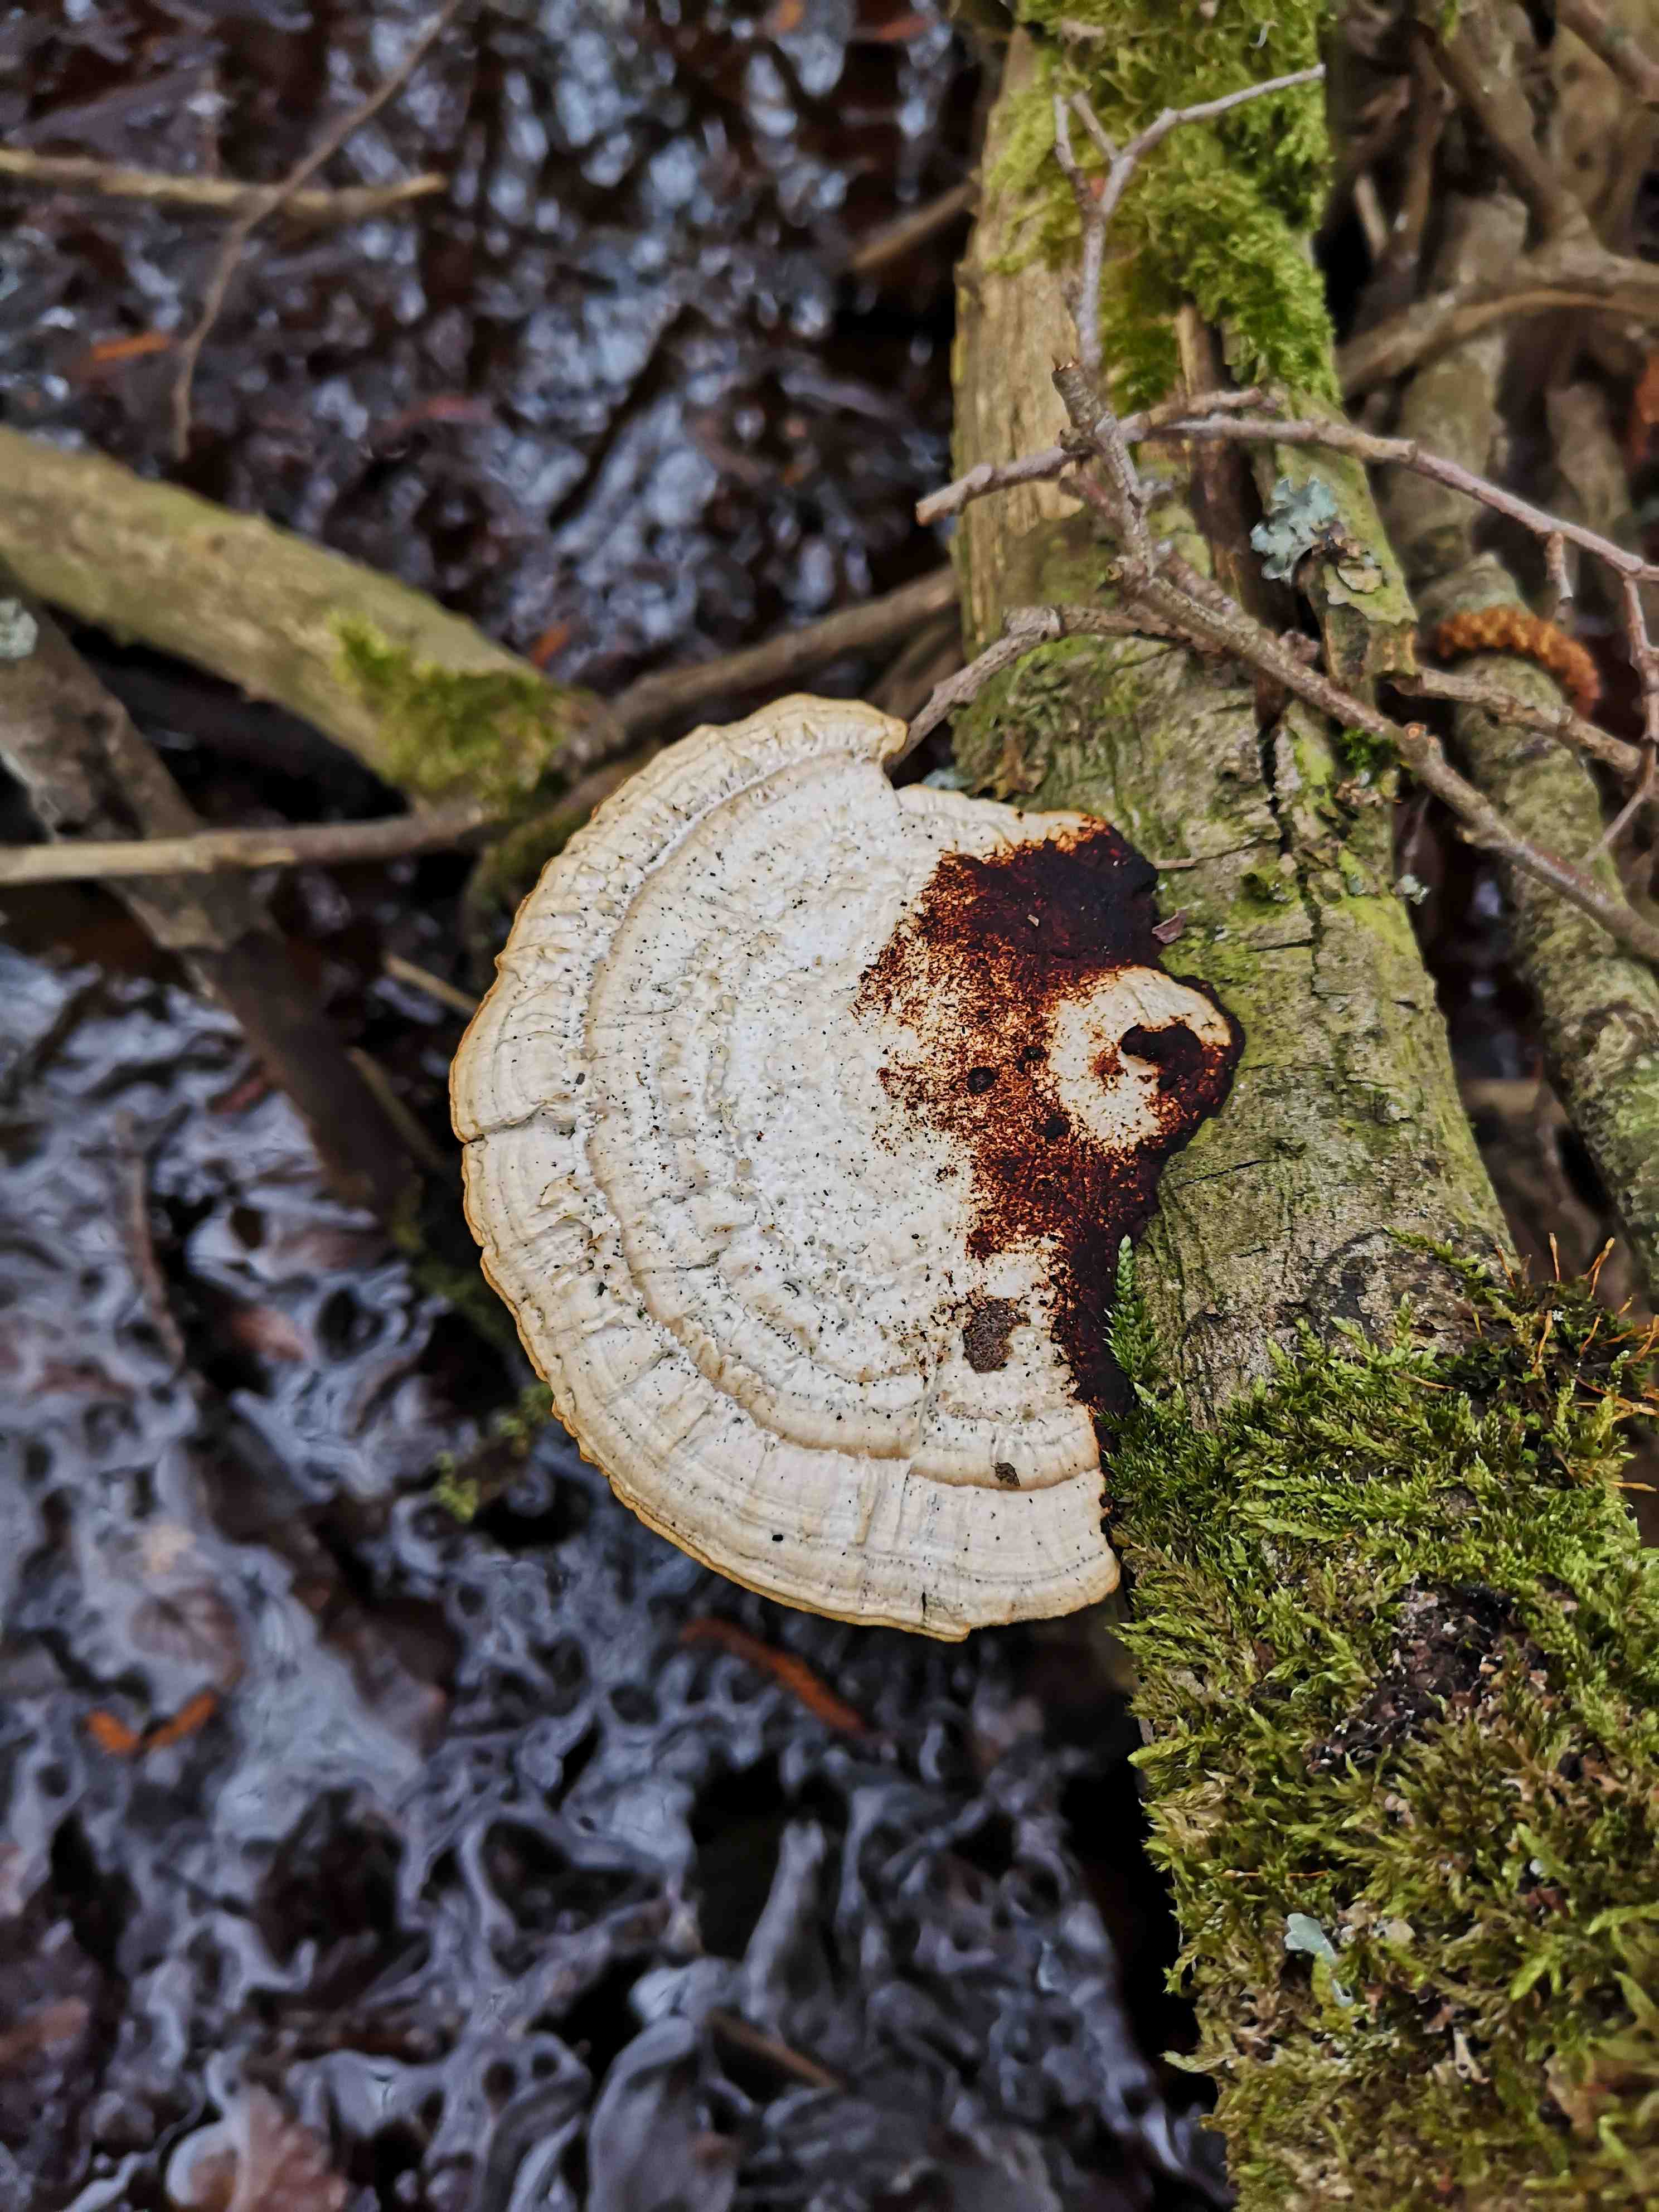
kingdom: Fungi
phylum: Basidiomycota
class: Agaricomycetes
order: Polyporales
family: Polyporaceae
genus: Daedaleopsis
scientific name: Daedaleopsis confragosa
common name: rødmende læderporesvamp
